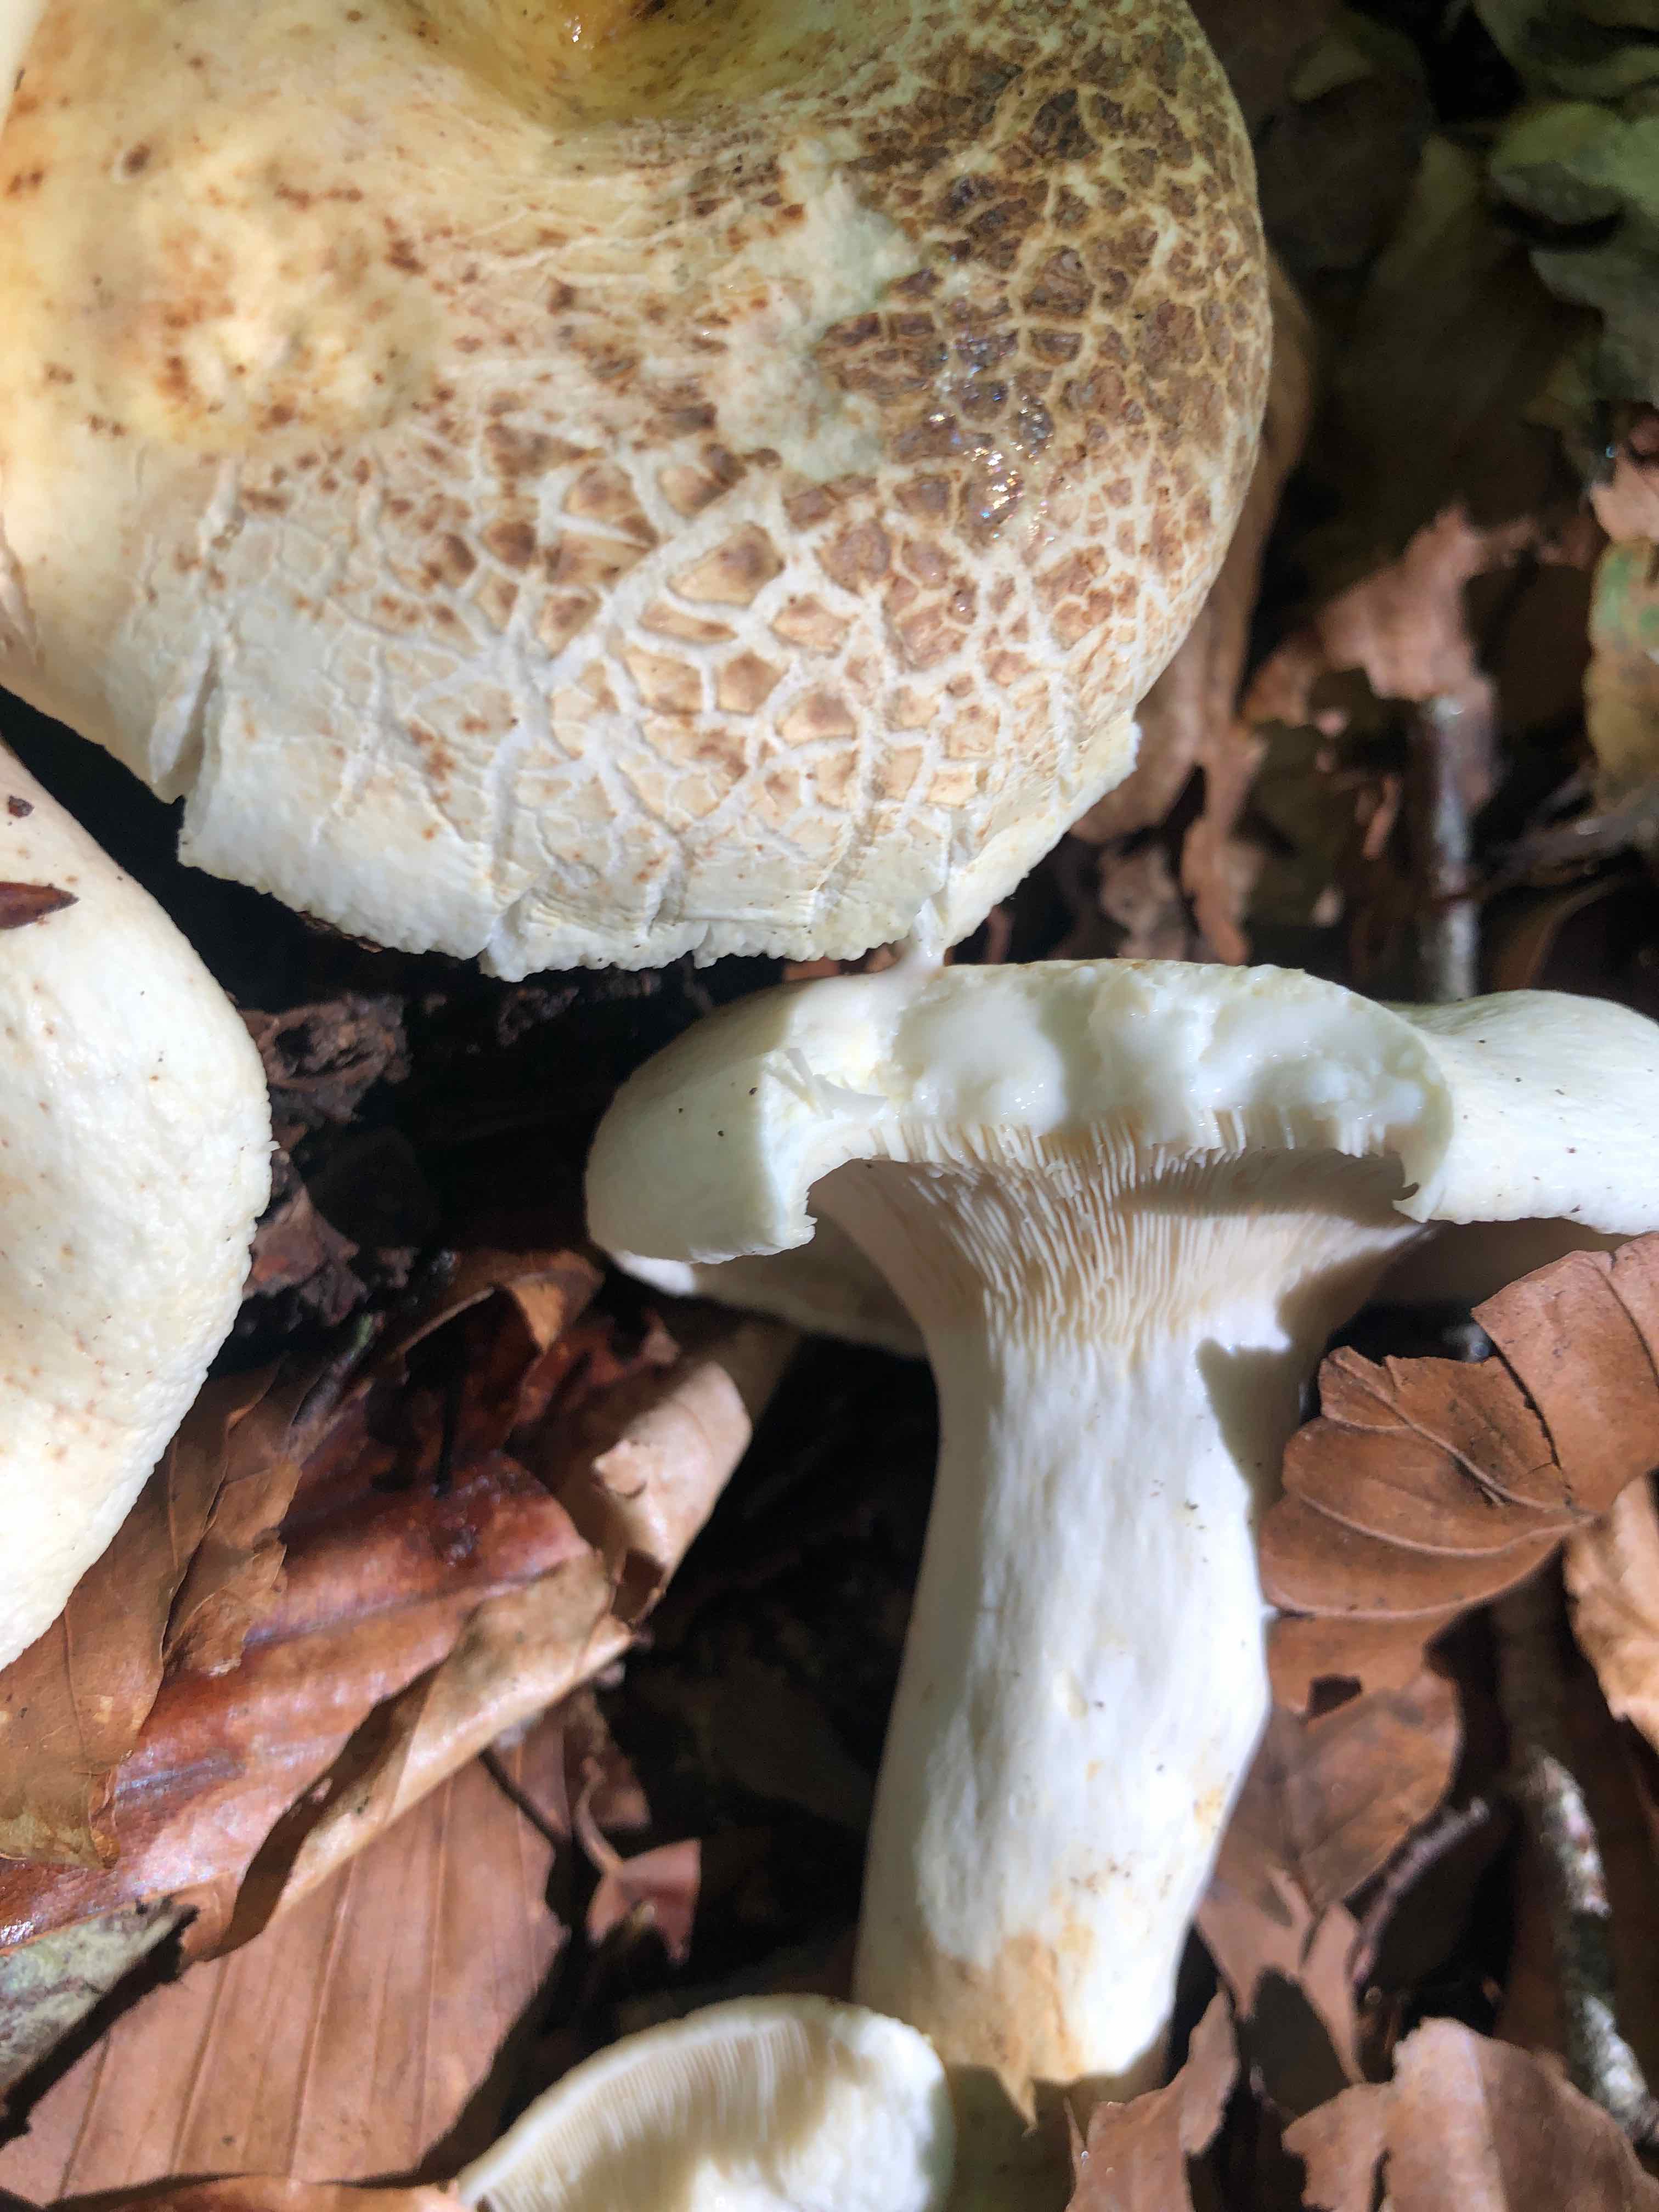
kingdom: Fungi
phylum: Basidiomycota
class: Agaricomycetes
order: Russulales
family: Russulaceae
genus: Lactifluus
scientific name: Lactifluus
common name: mælkehat
